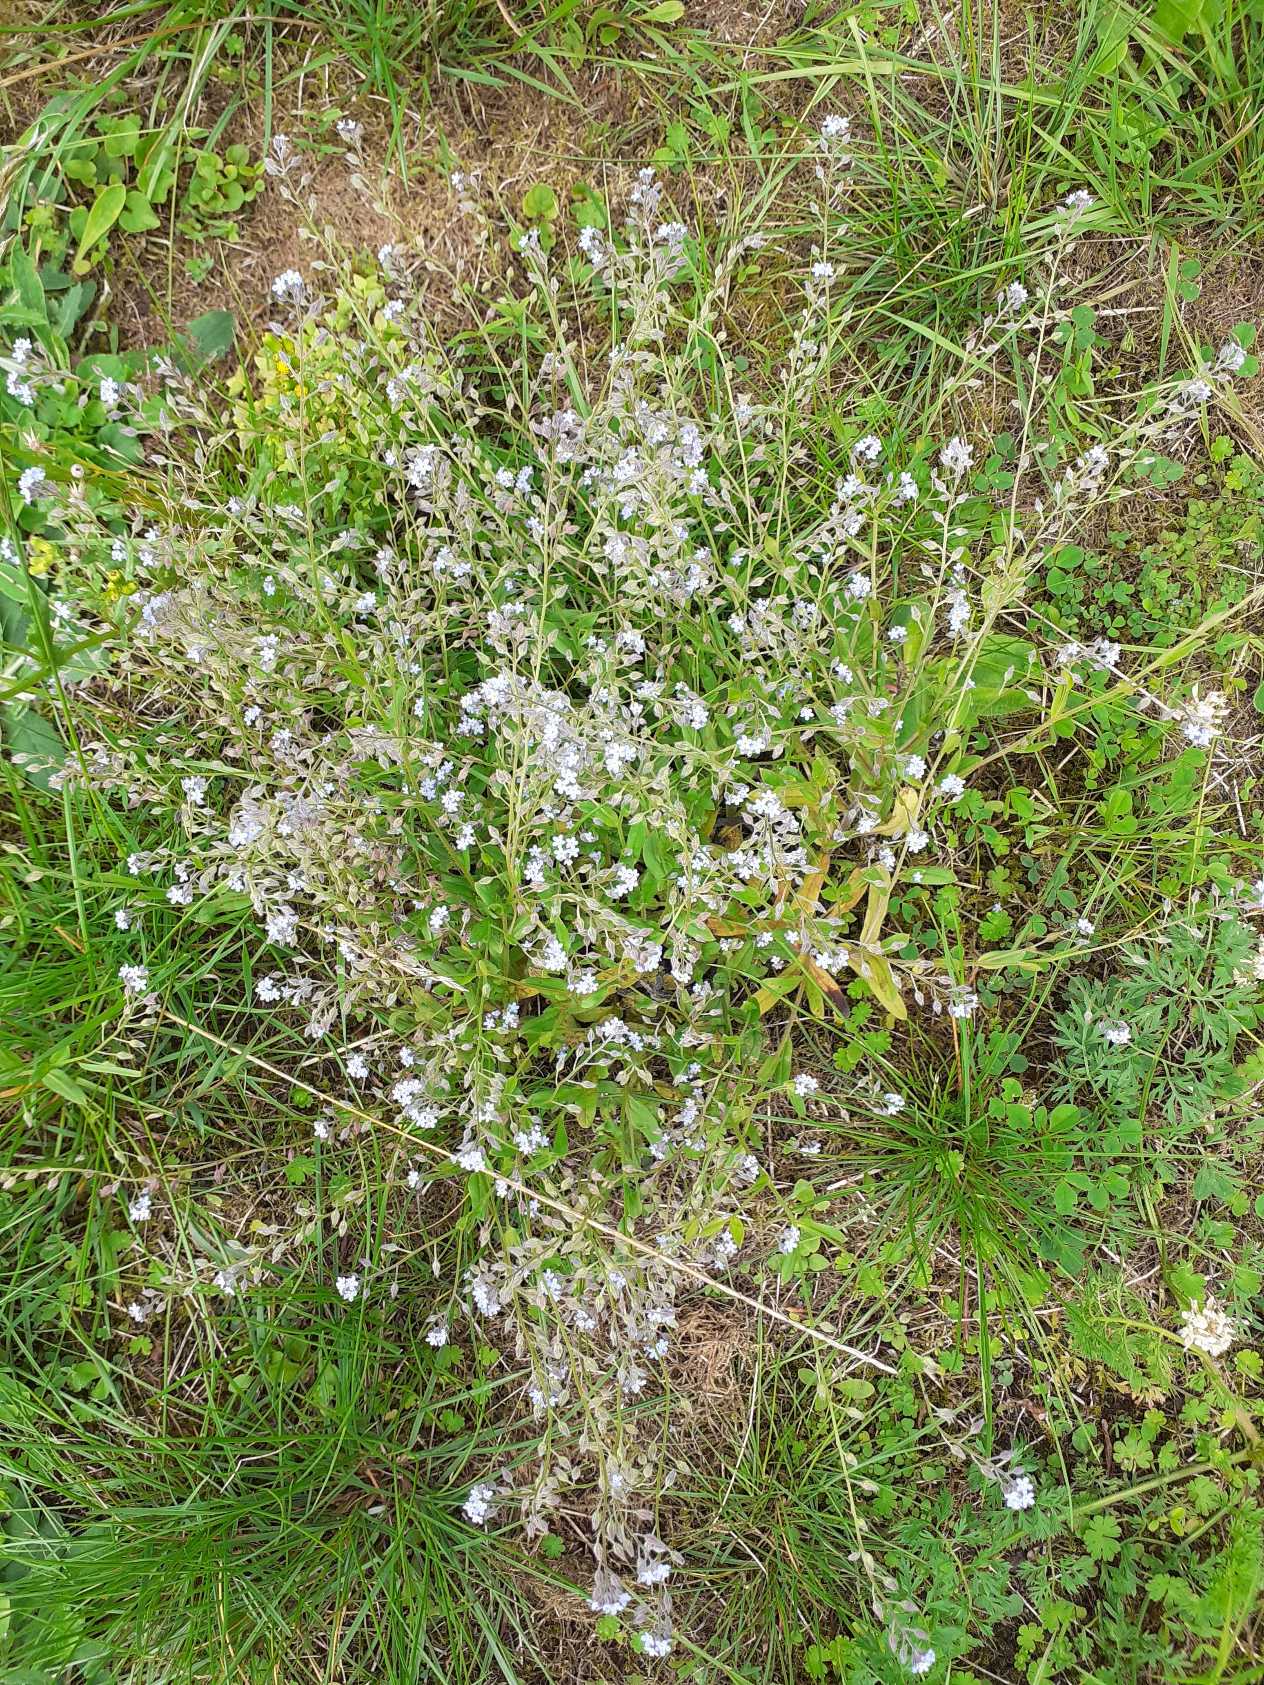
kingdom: Plantae
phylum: Tracheophyta
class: Magnoliopsida
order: Boraginales
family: Boraginaceae
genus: Myosotis
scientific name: Myosotis arvensis
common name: Mark-forglemmigej
